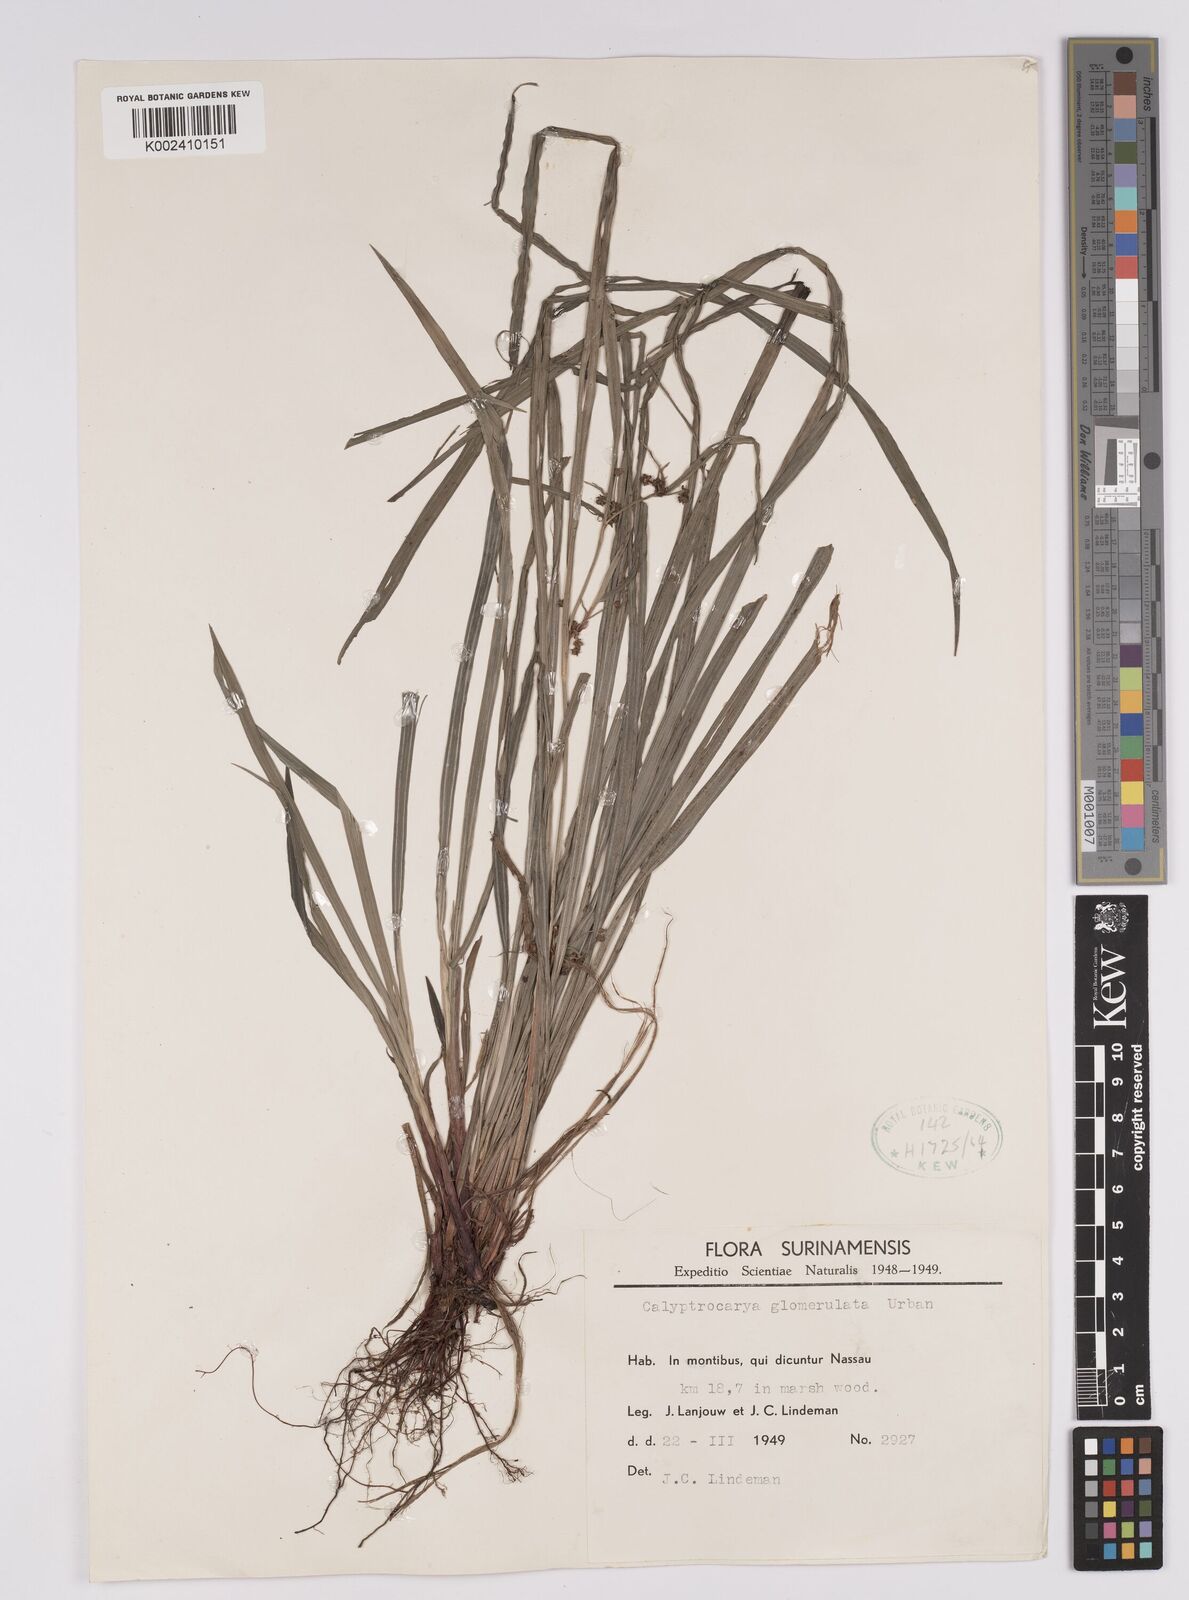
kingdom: Plantae
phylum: Tracheophyta
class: Liliopsida
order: Poales
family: Cyperaceae
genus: Calyptrocarya
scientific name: Calyptrocarya glomerulata
